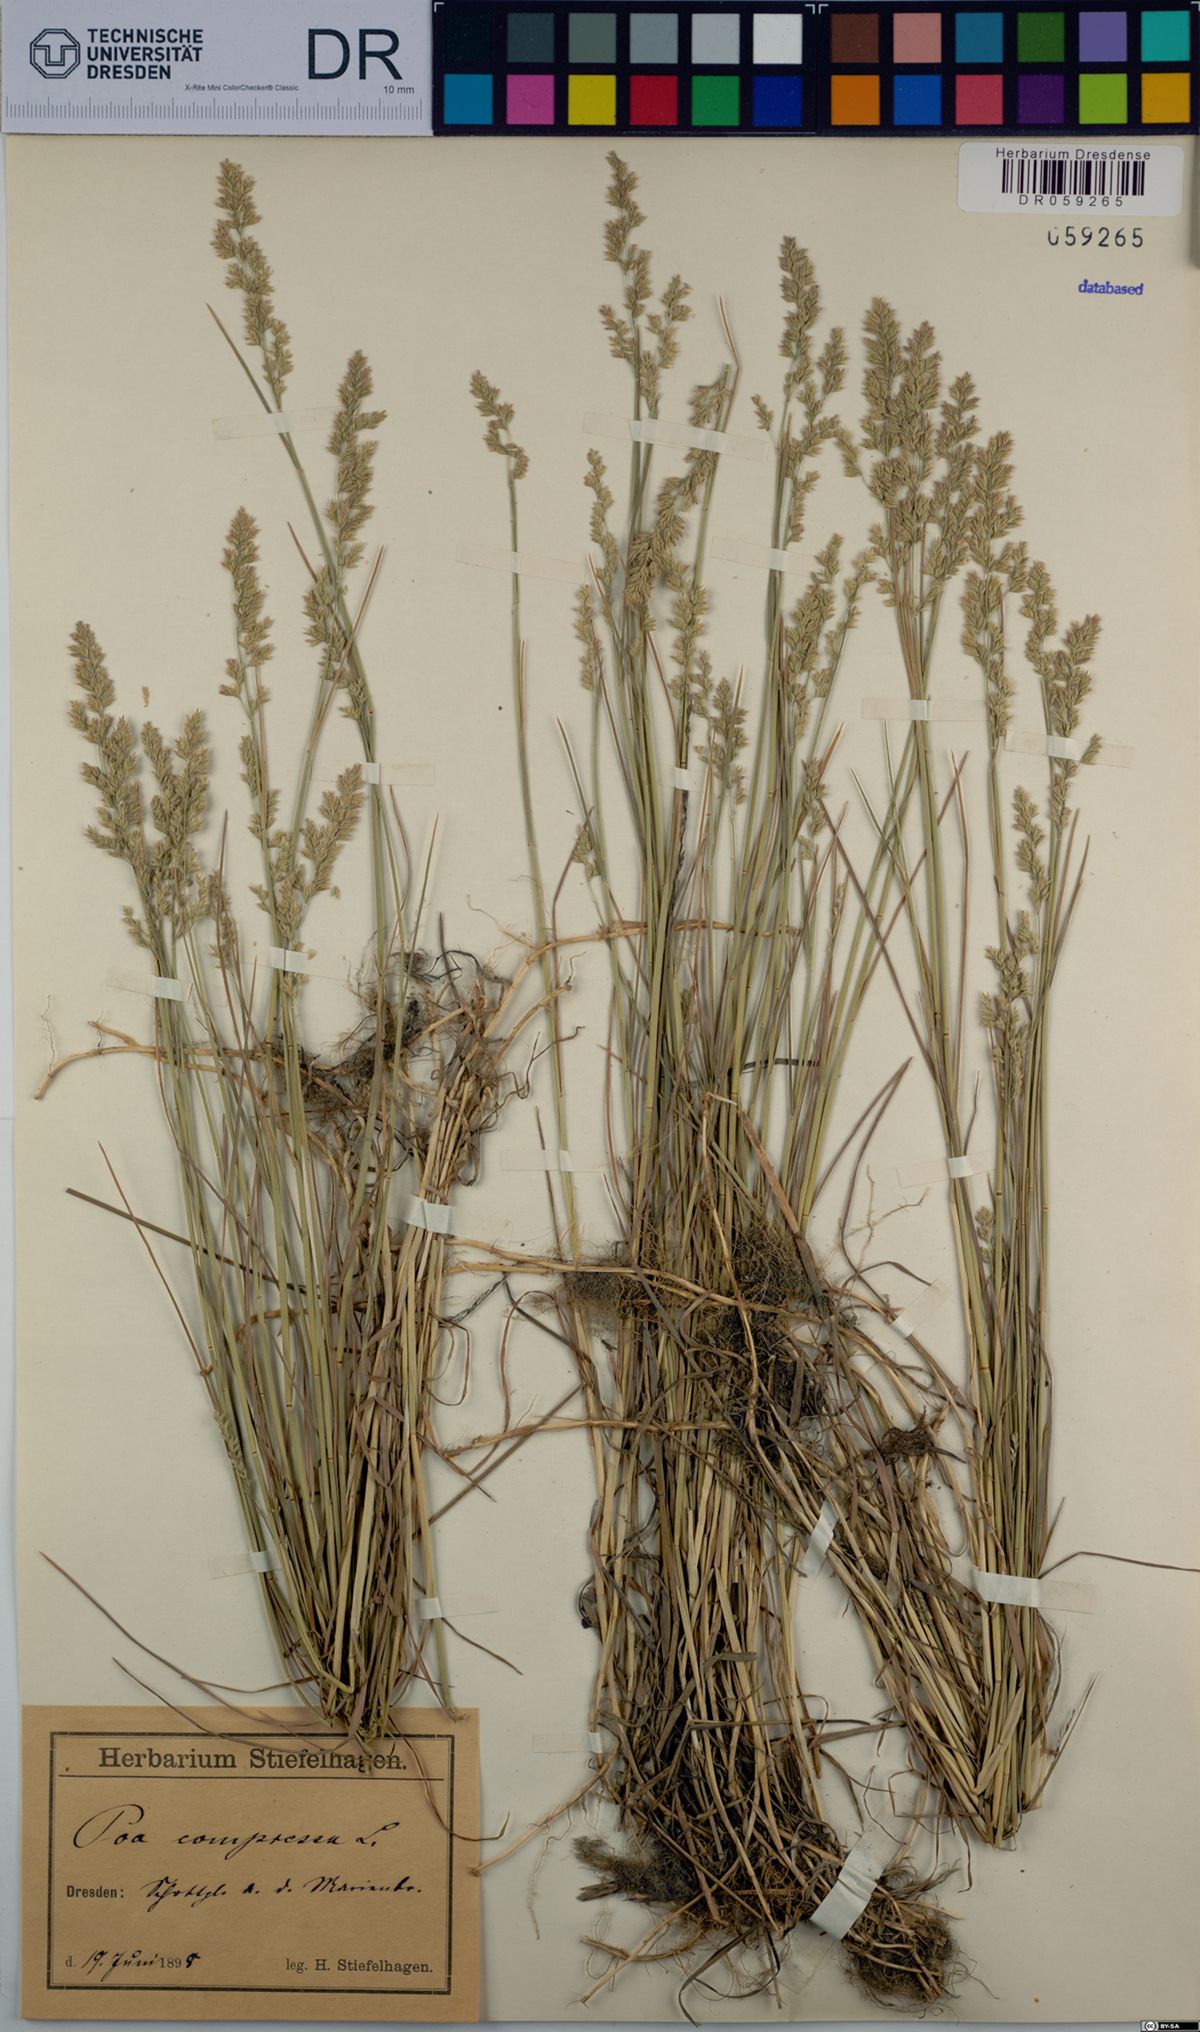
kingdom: Plantae
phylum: Tracheophyta
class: Liliopsida
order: Poales
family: Poaceae
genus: Poa
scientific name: Poa compressa
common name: Canada bluegrass
